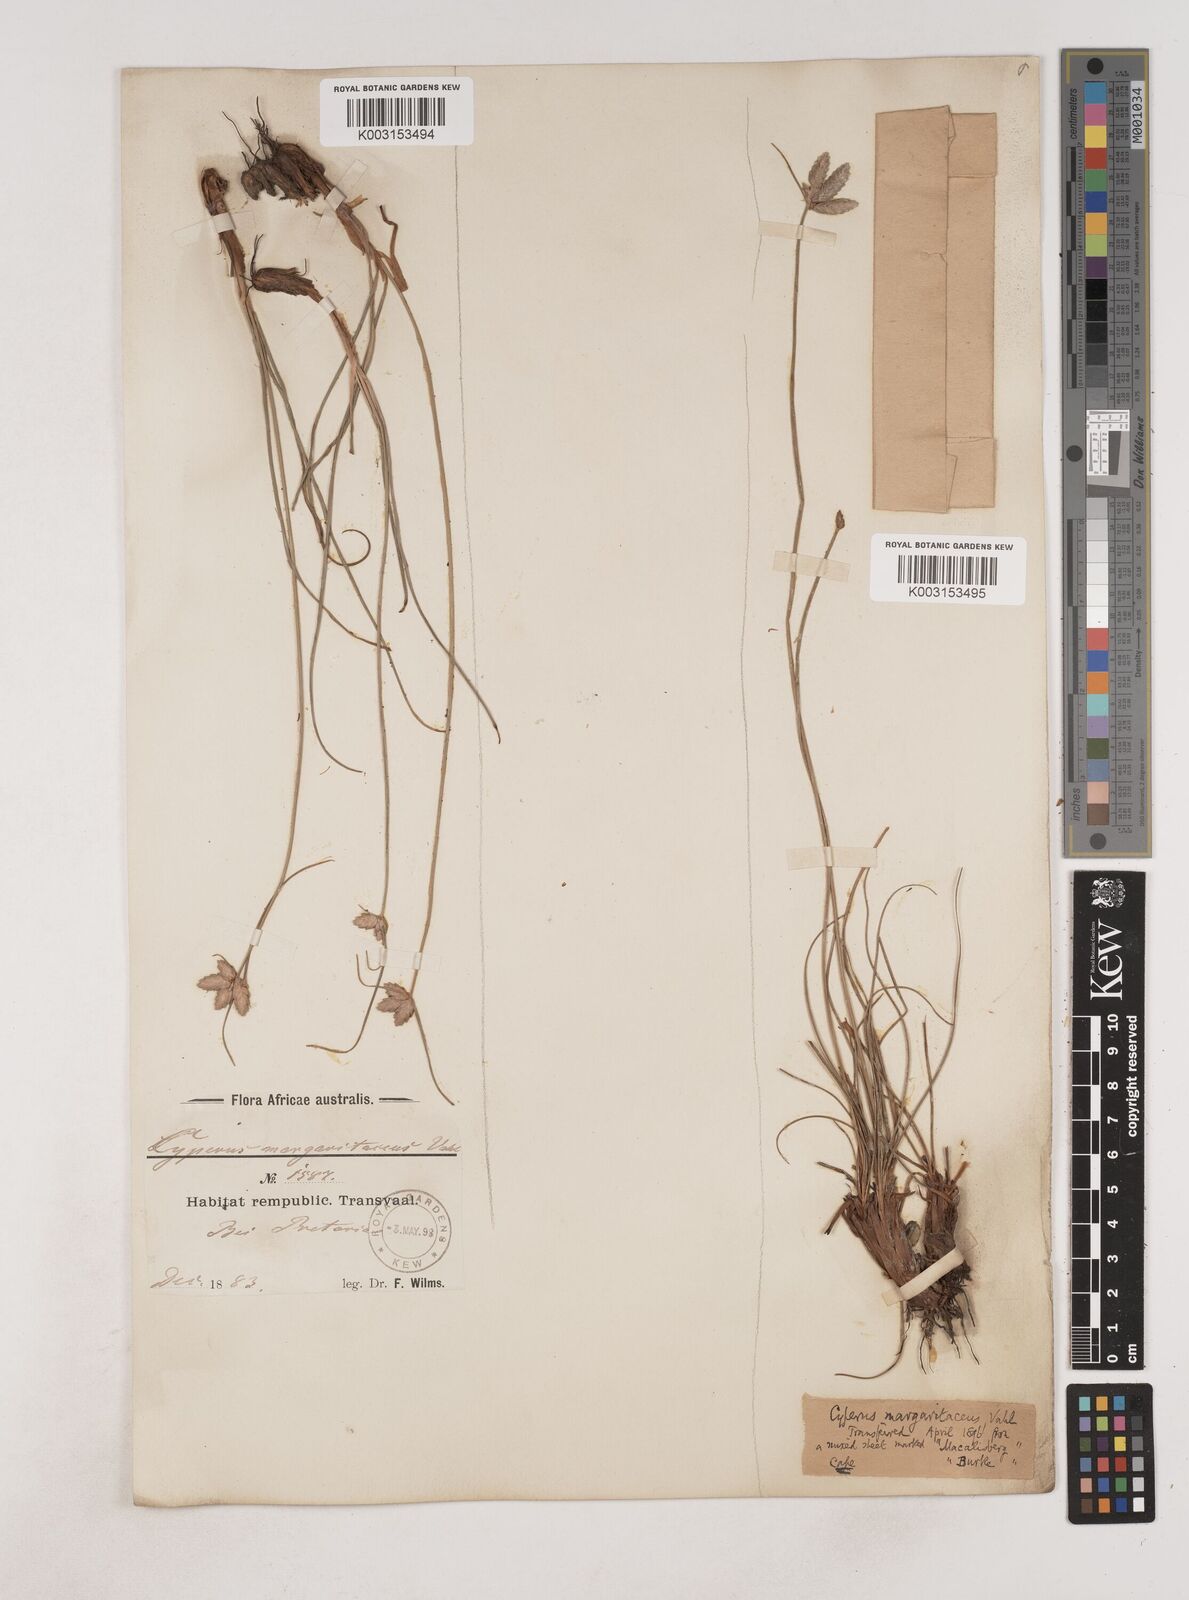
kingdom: Plantae
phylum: Tracheophyta
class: Liliopsida
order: Poales
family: Cyperaceae
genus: Cyperus
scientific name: Cyperus margaritaceus
